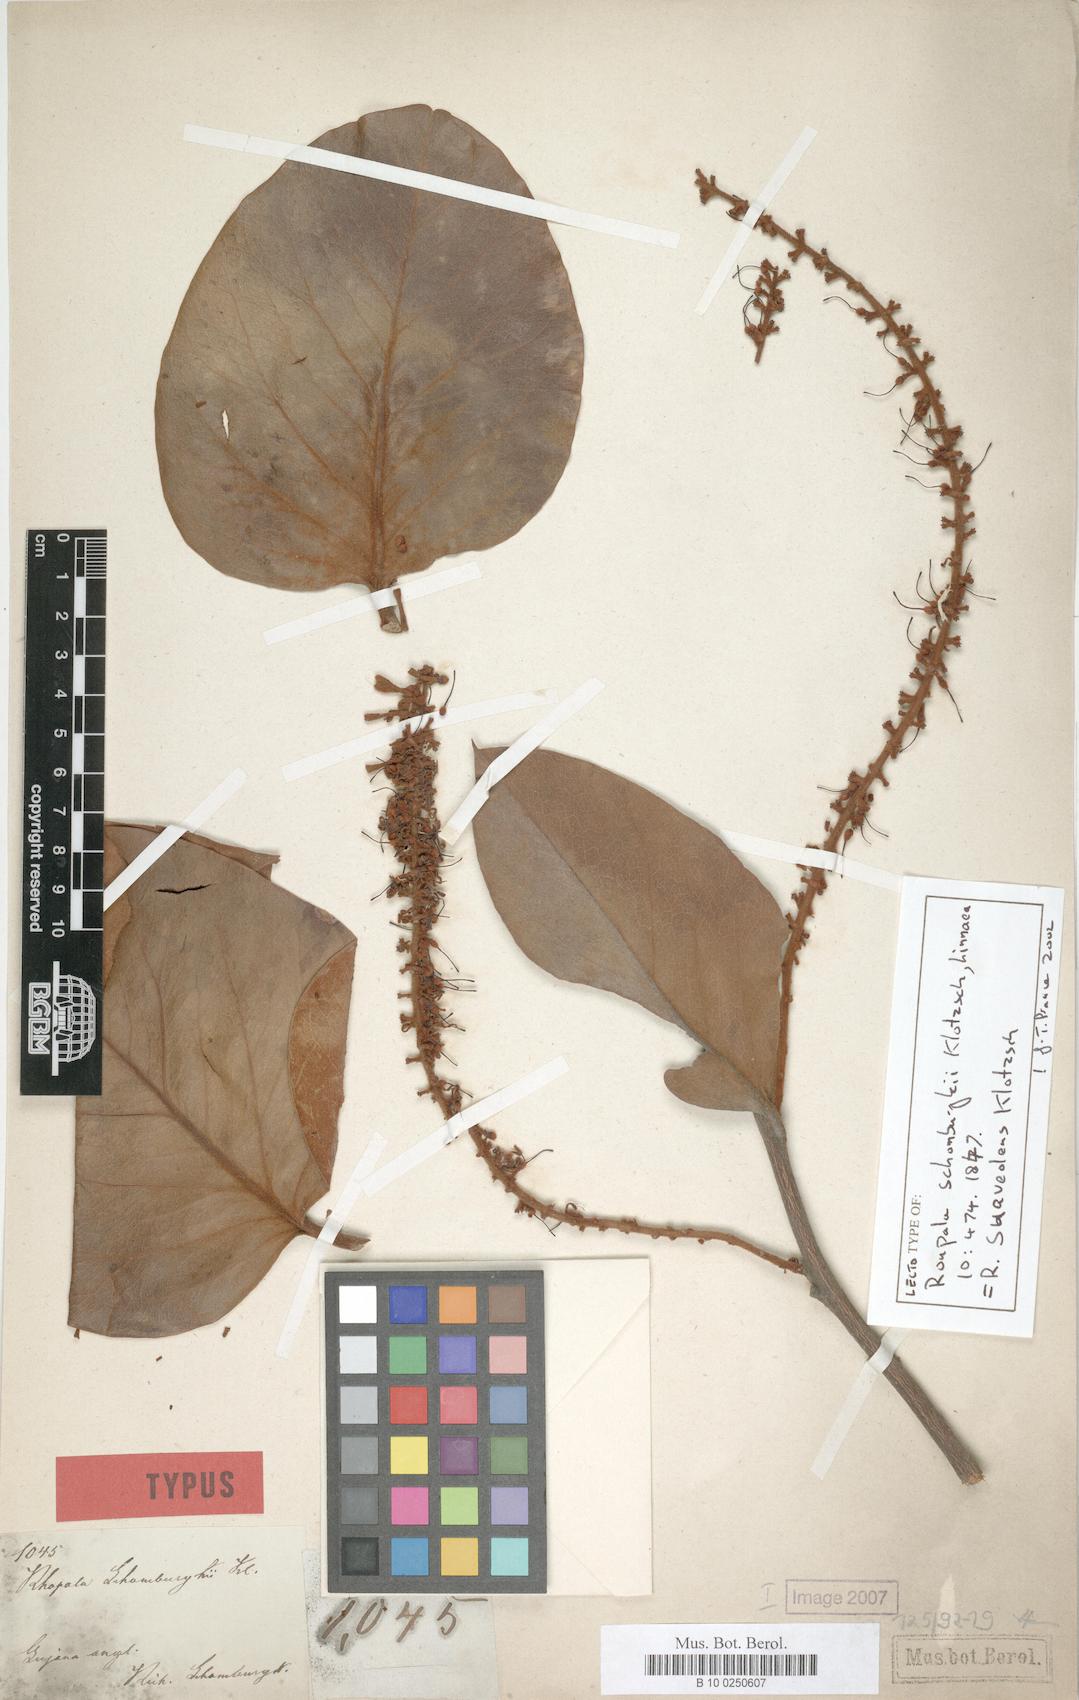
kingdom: Plantae
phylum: Tracheophyta
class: Magnoliopsida
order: Proteales
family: Proteaceae
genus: Roupala
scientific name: Roupala suaveolens
